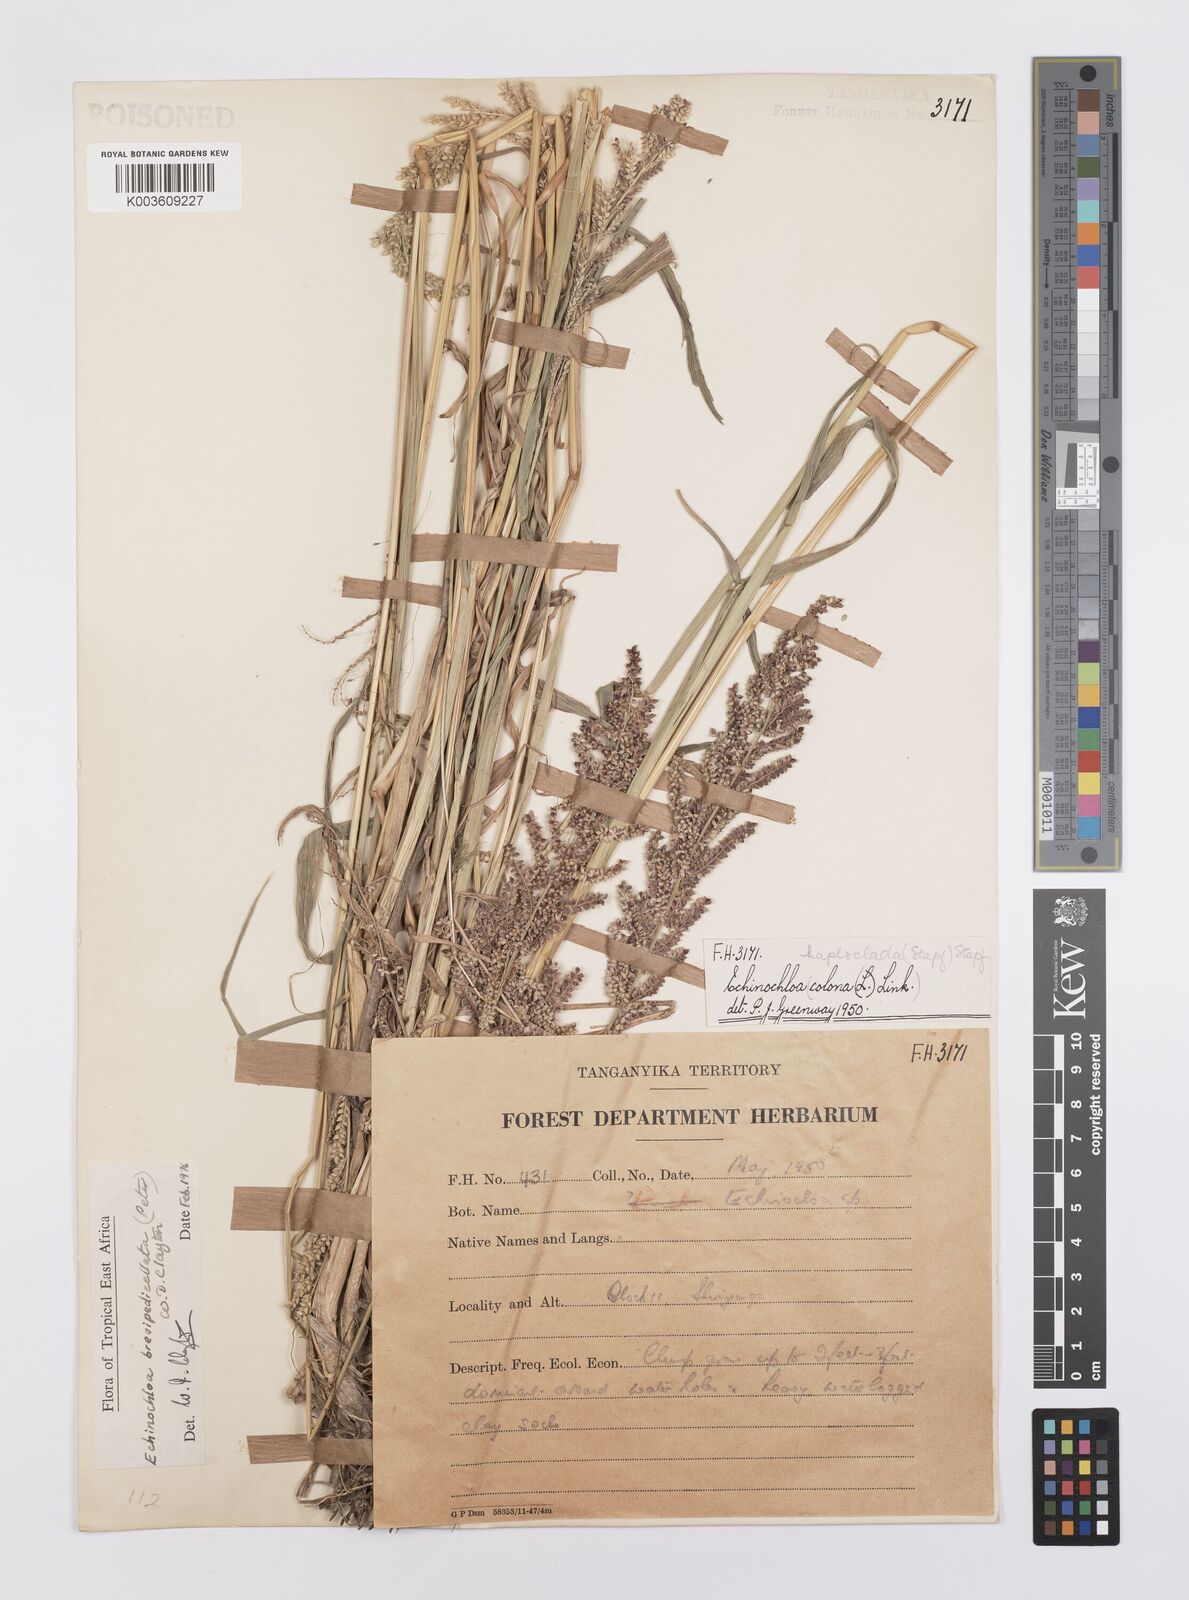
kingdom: Plantae
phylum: Tracheophyta
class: Liliopsida
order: Poales
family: Poaceae
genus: Echinochloa
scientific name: Echinochloa brevipedicellata
